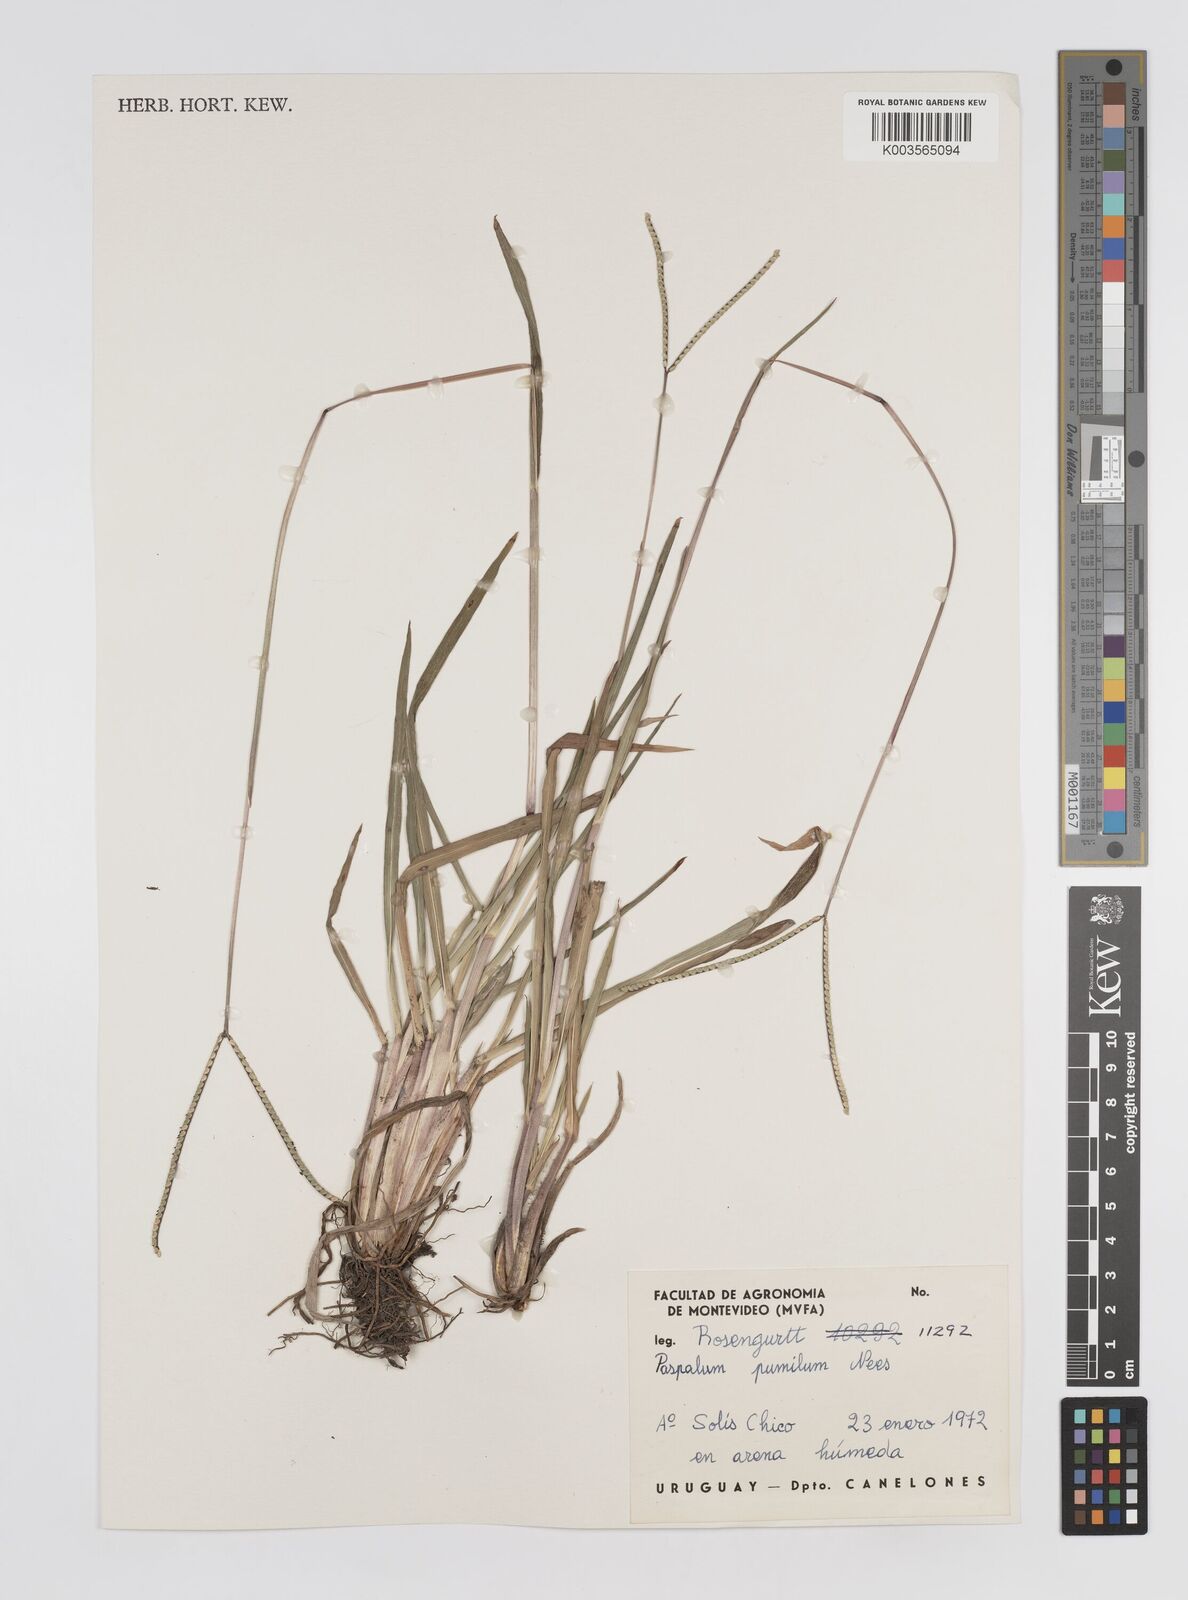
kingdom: Plantae
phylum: Tracheophyta
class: Liliopsida
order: Poales
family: Poaceae
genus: Paspalum
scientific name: Paspalum clavuliferum
